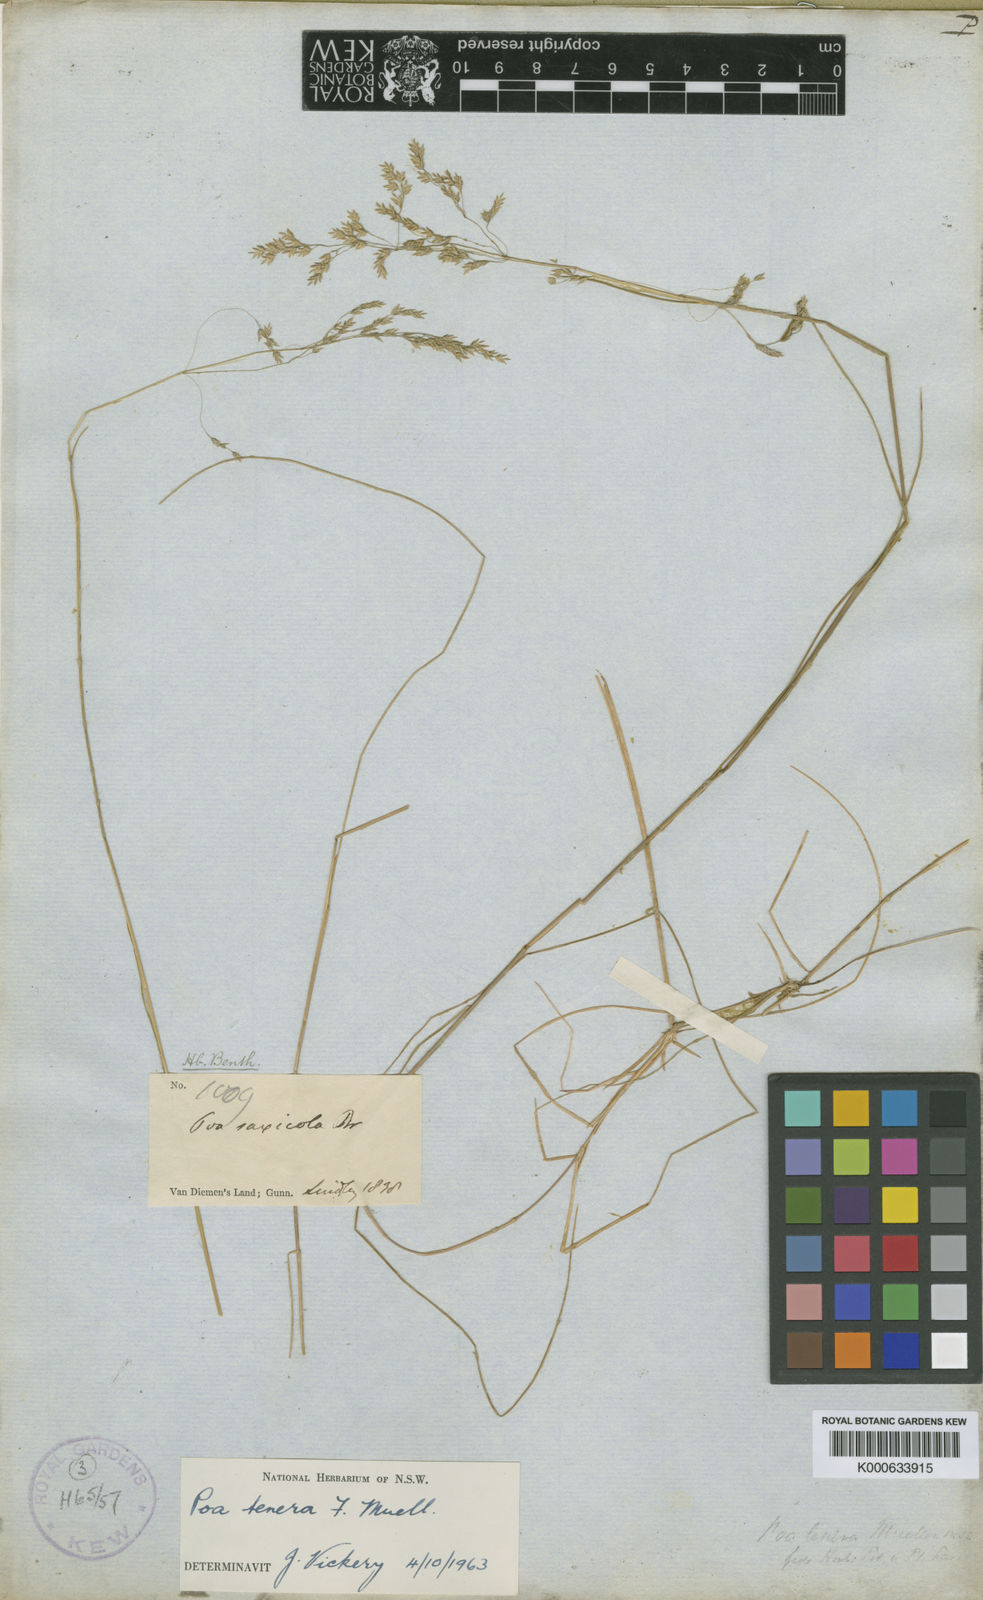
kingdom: Plantae
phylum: Tracheophyta
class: Liliopsida
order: Poales
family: Poaceae
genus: Poa
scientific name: Poa tenera
